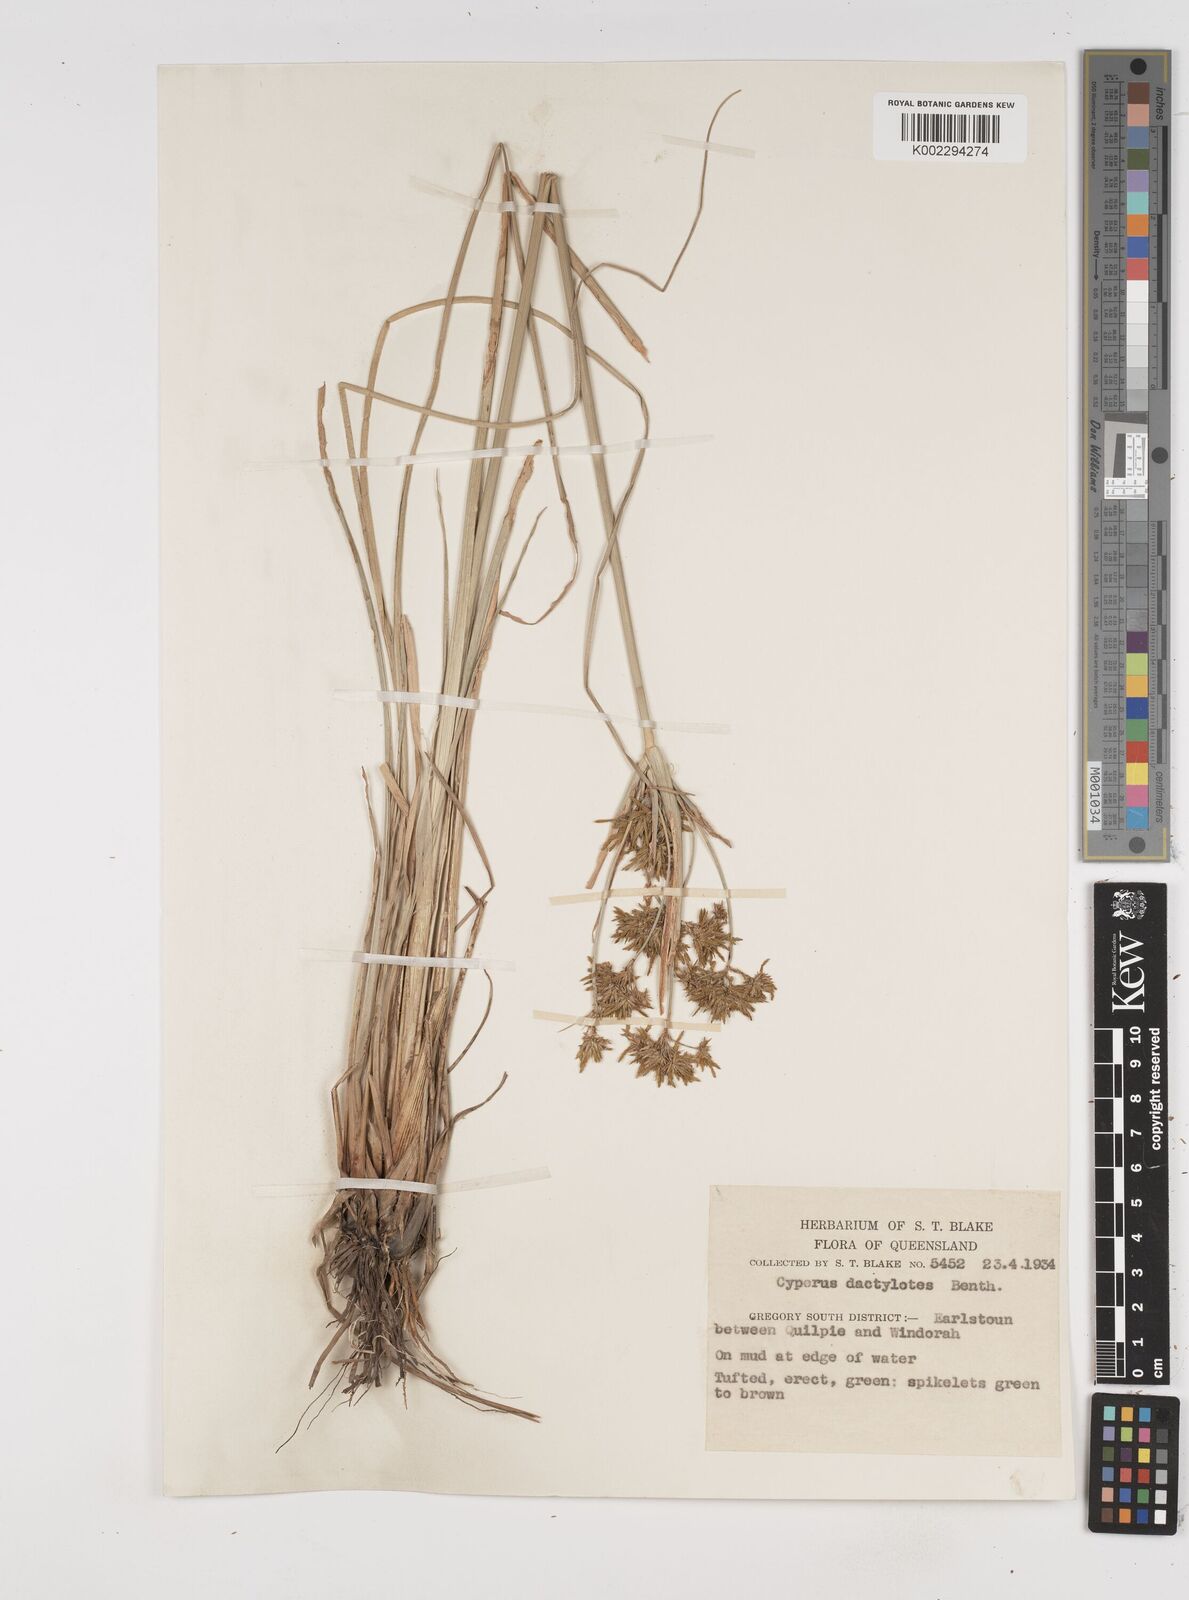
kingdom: Plantae
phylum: Tracheophyta
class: Liliopsida
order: Poales
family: Cyperaceae
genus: Cyperus
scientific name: Cyperus dactylotes
